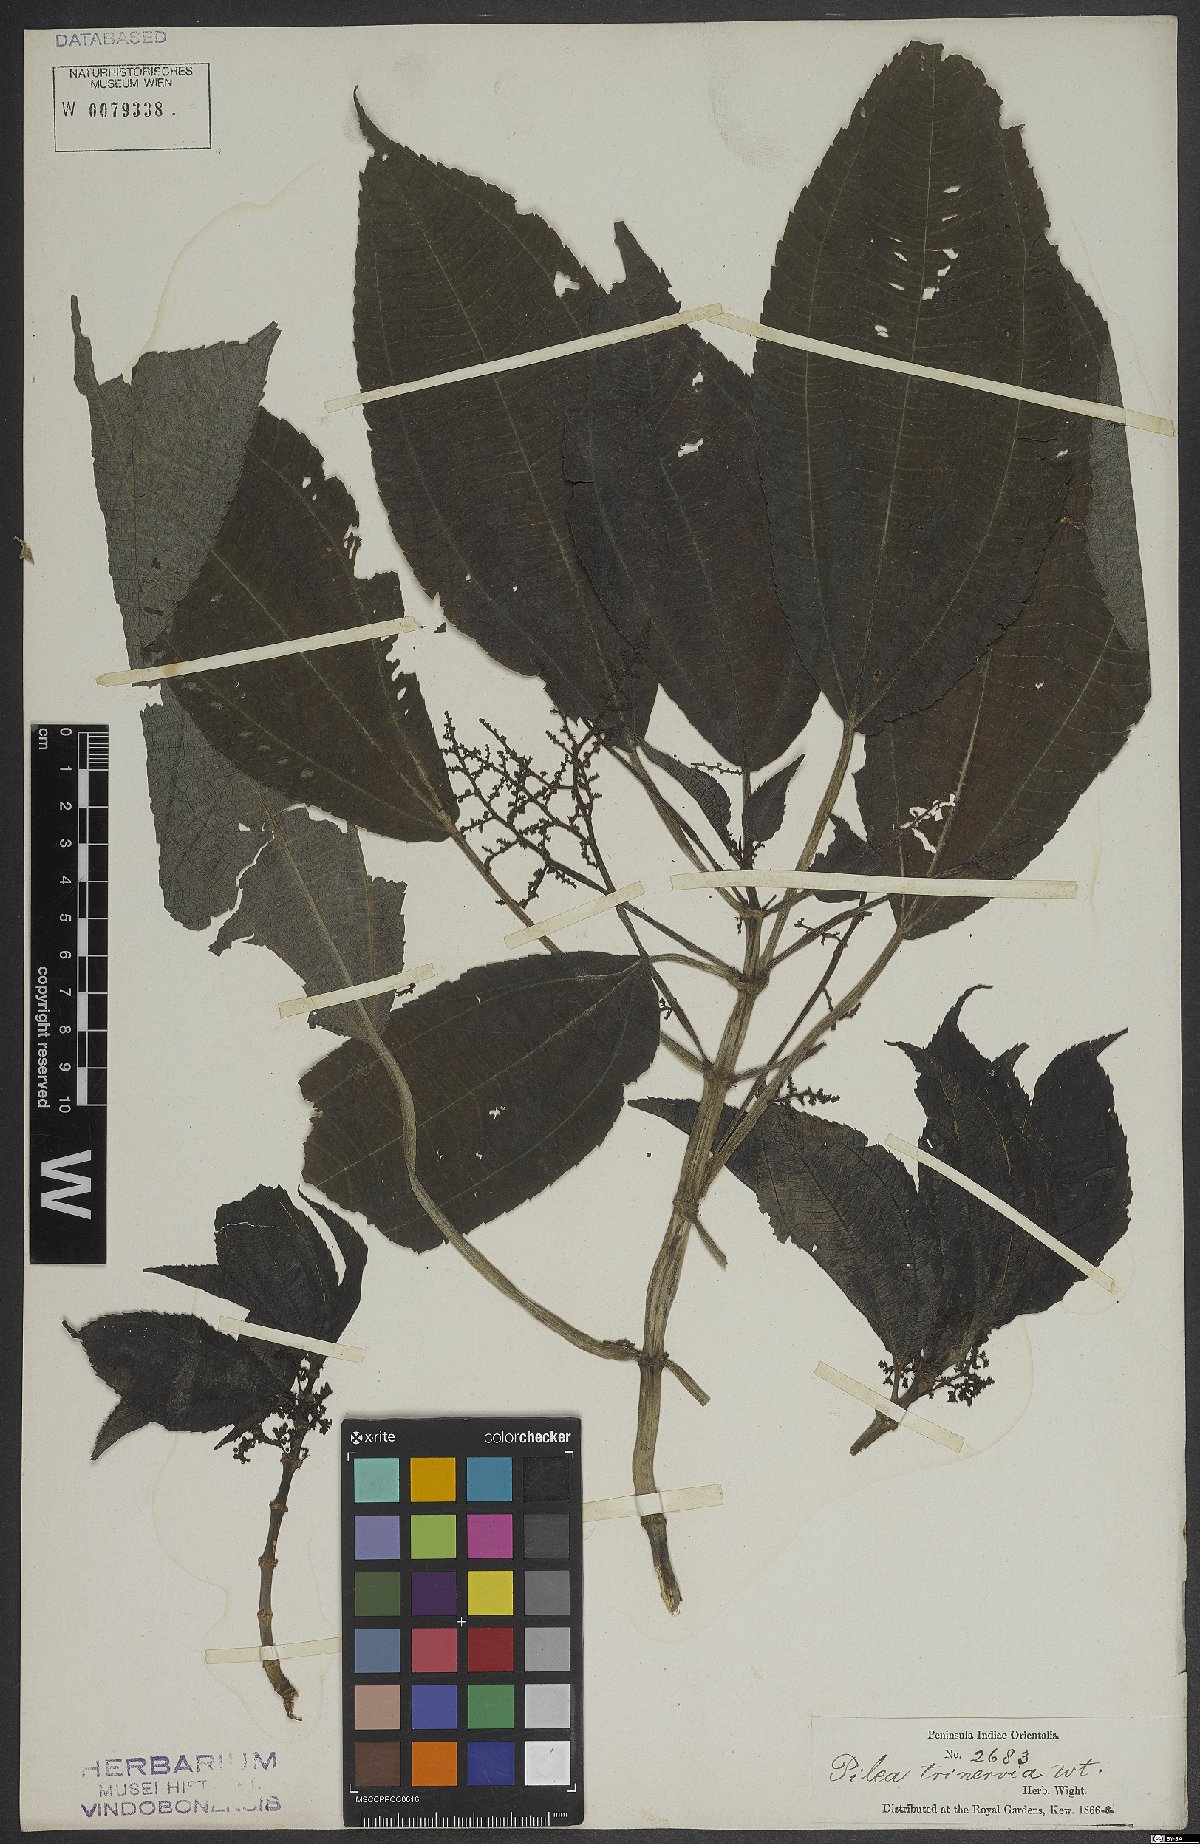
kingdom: Plantae
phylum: Tracheophyta
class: Magnoliopsida
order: Rosales
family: Urticaceae
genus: Pilea
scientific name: Pilea melastomoides
